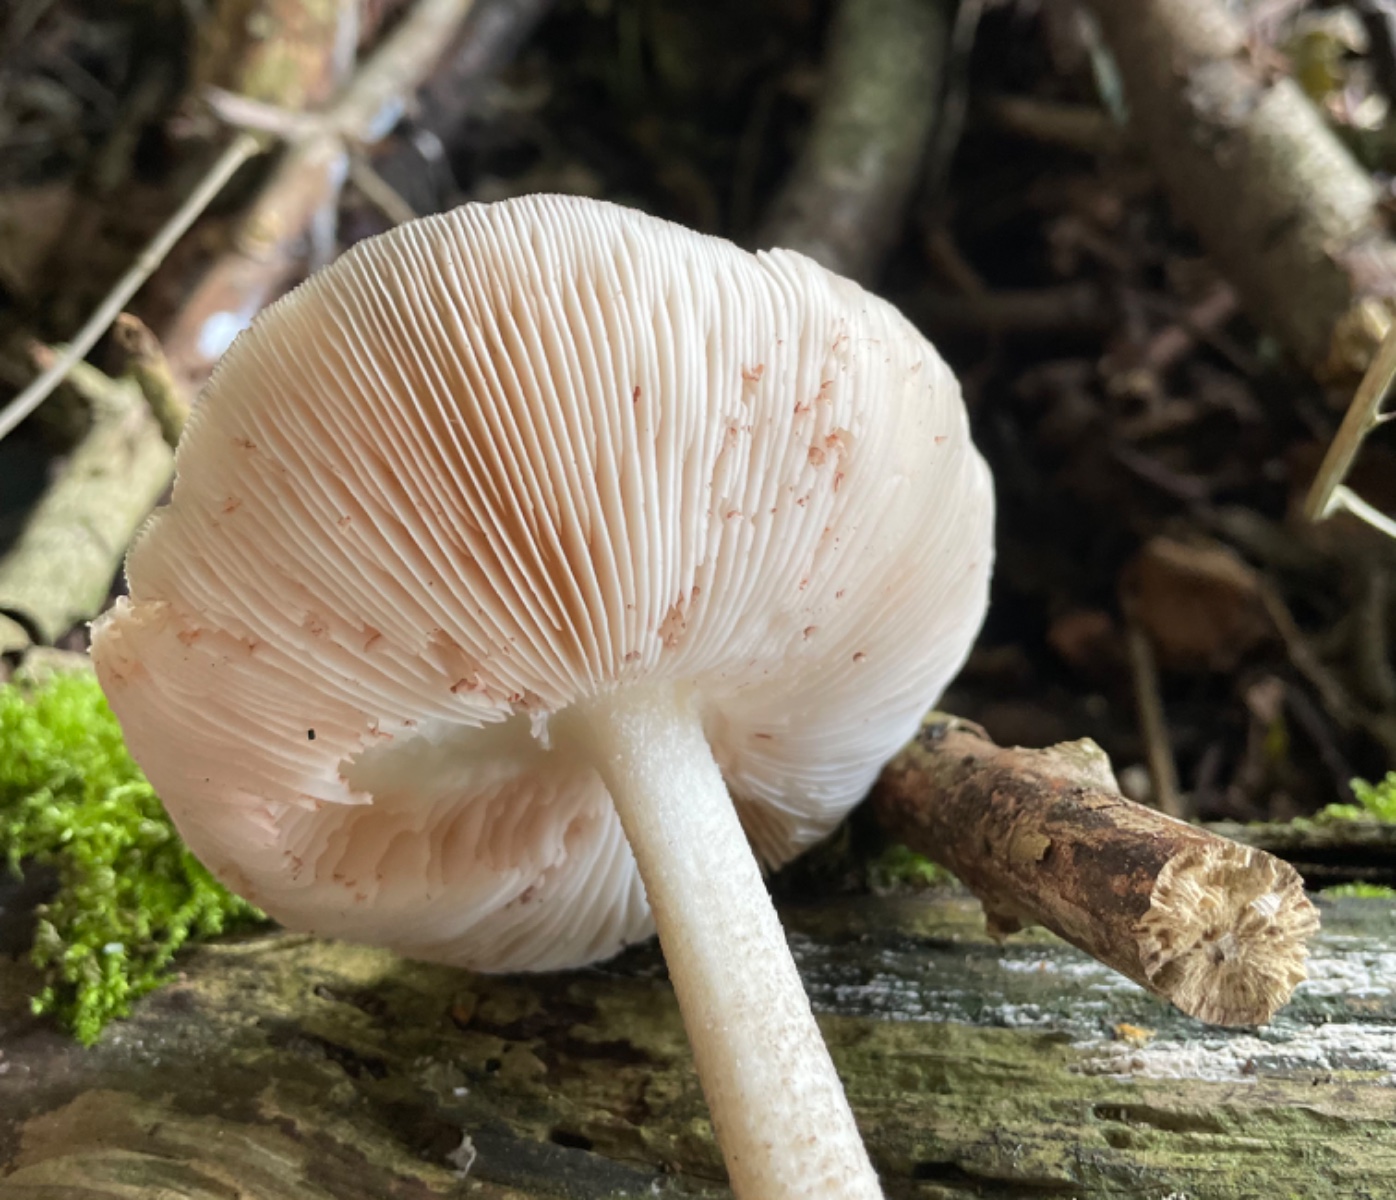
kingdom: Fungi
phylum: Basidiomycota
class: Agaricomycetes
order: Agaricales
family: Pluteaceae
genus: Pluteus
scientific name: Pluteus cervinus
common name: sodfarvet skærmhat
